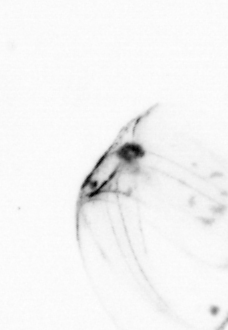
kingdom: Animalia
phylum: Arthropoda
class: Copepoda
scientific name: Copepoda
